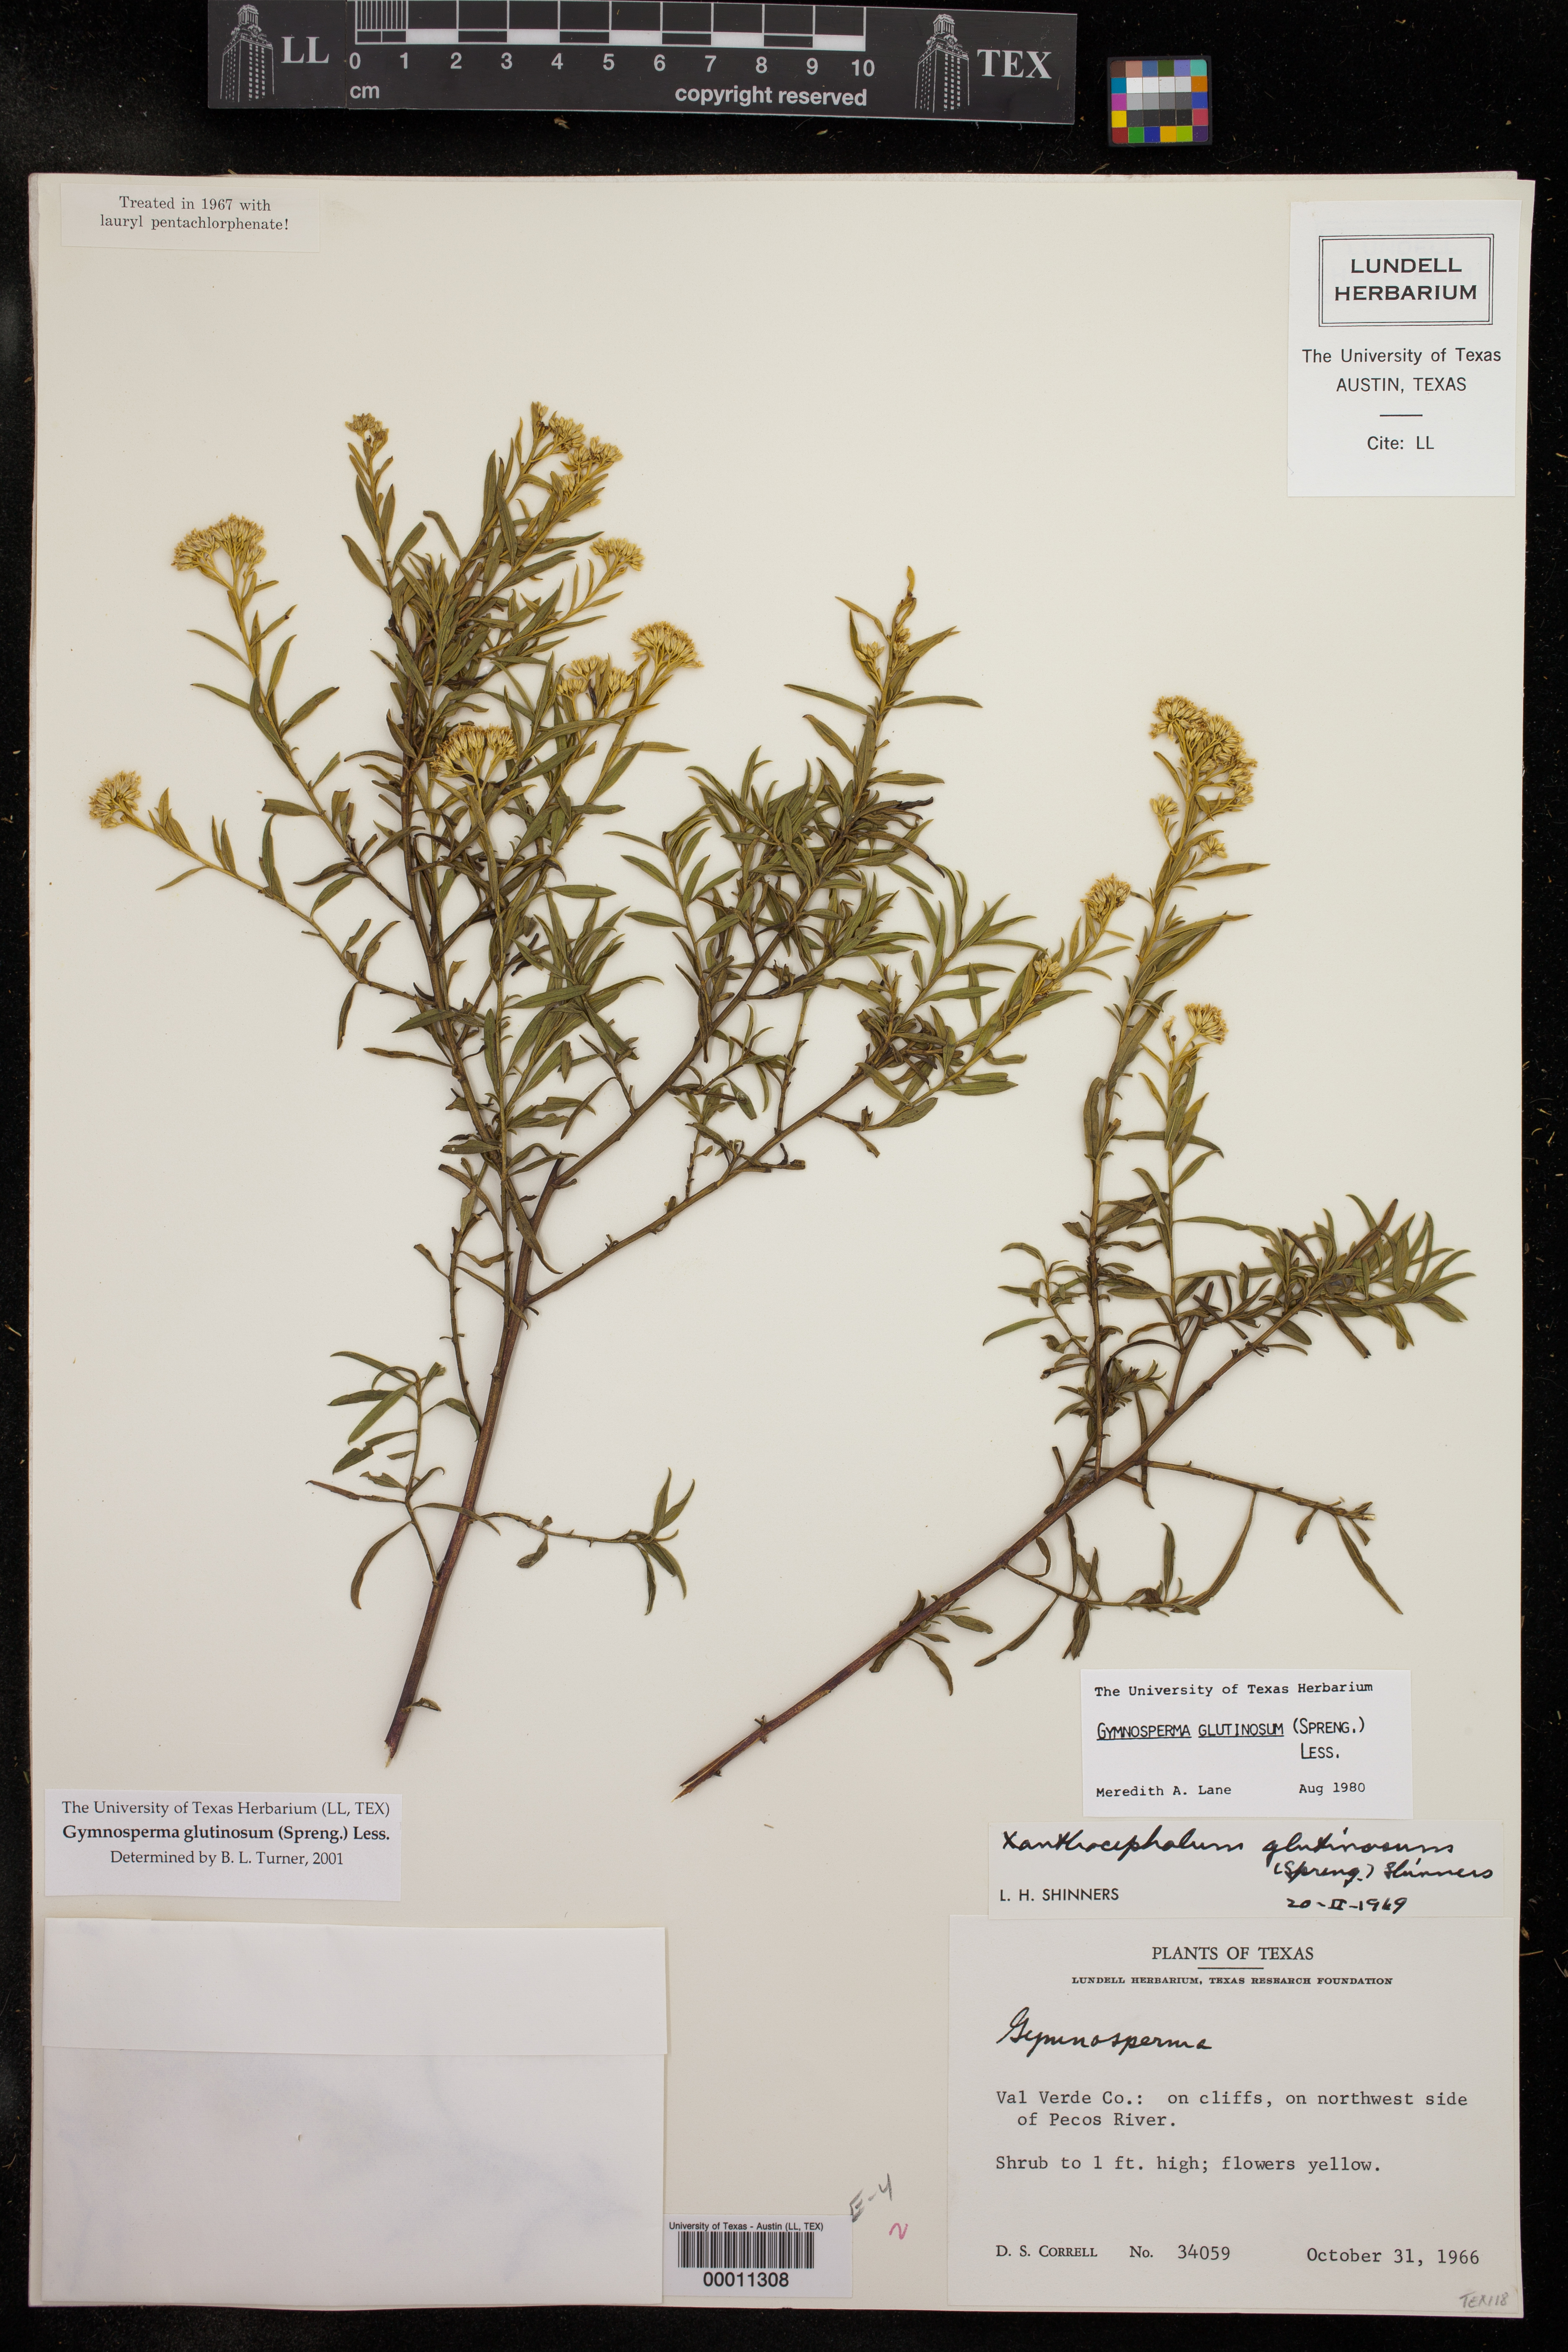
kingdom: Plantae
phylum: Tracheophyta
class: Magnoliopsida
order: Asterales
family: Asteraceae
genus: Gymnosperma
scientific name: Gymnosperma glutinosum
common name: Gumhead
